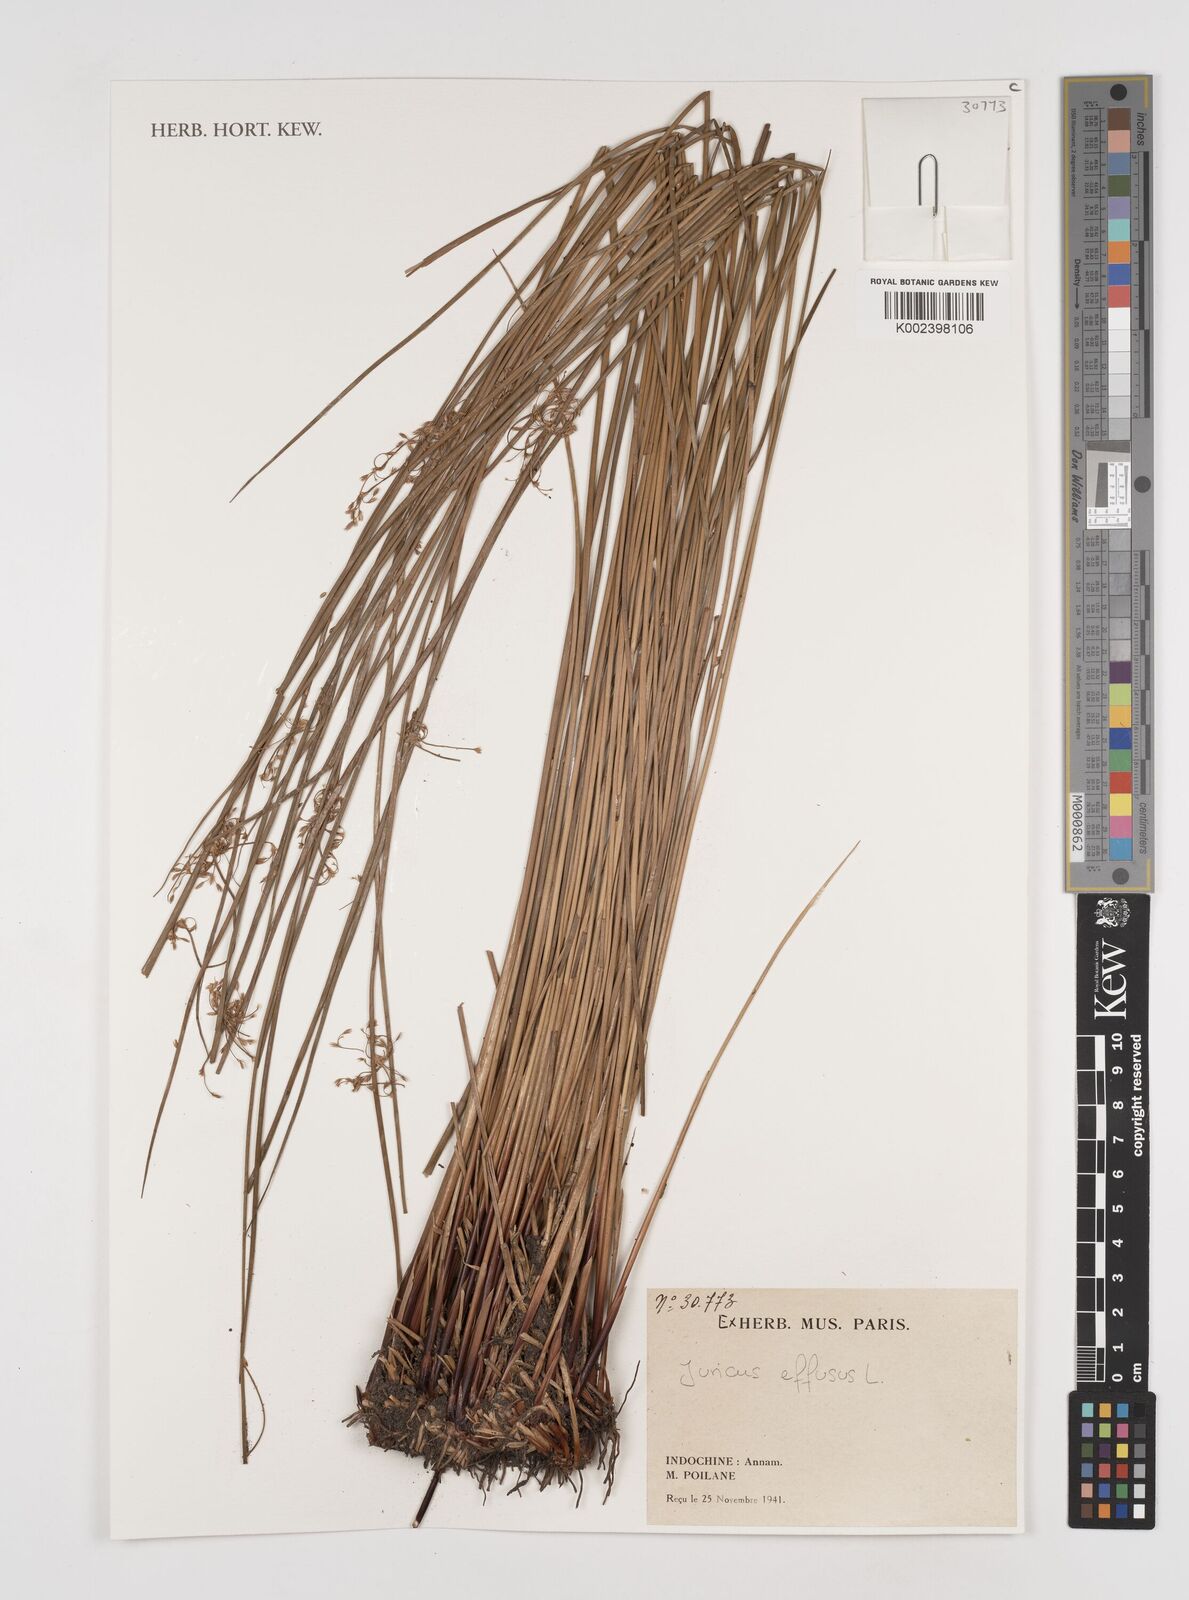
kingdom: Plantae
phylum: Tracheophyta
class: Liliopsida
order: Poales
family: Juncaceae
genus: Juncus
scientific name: Juncus effusus
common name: Soft rush
